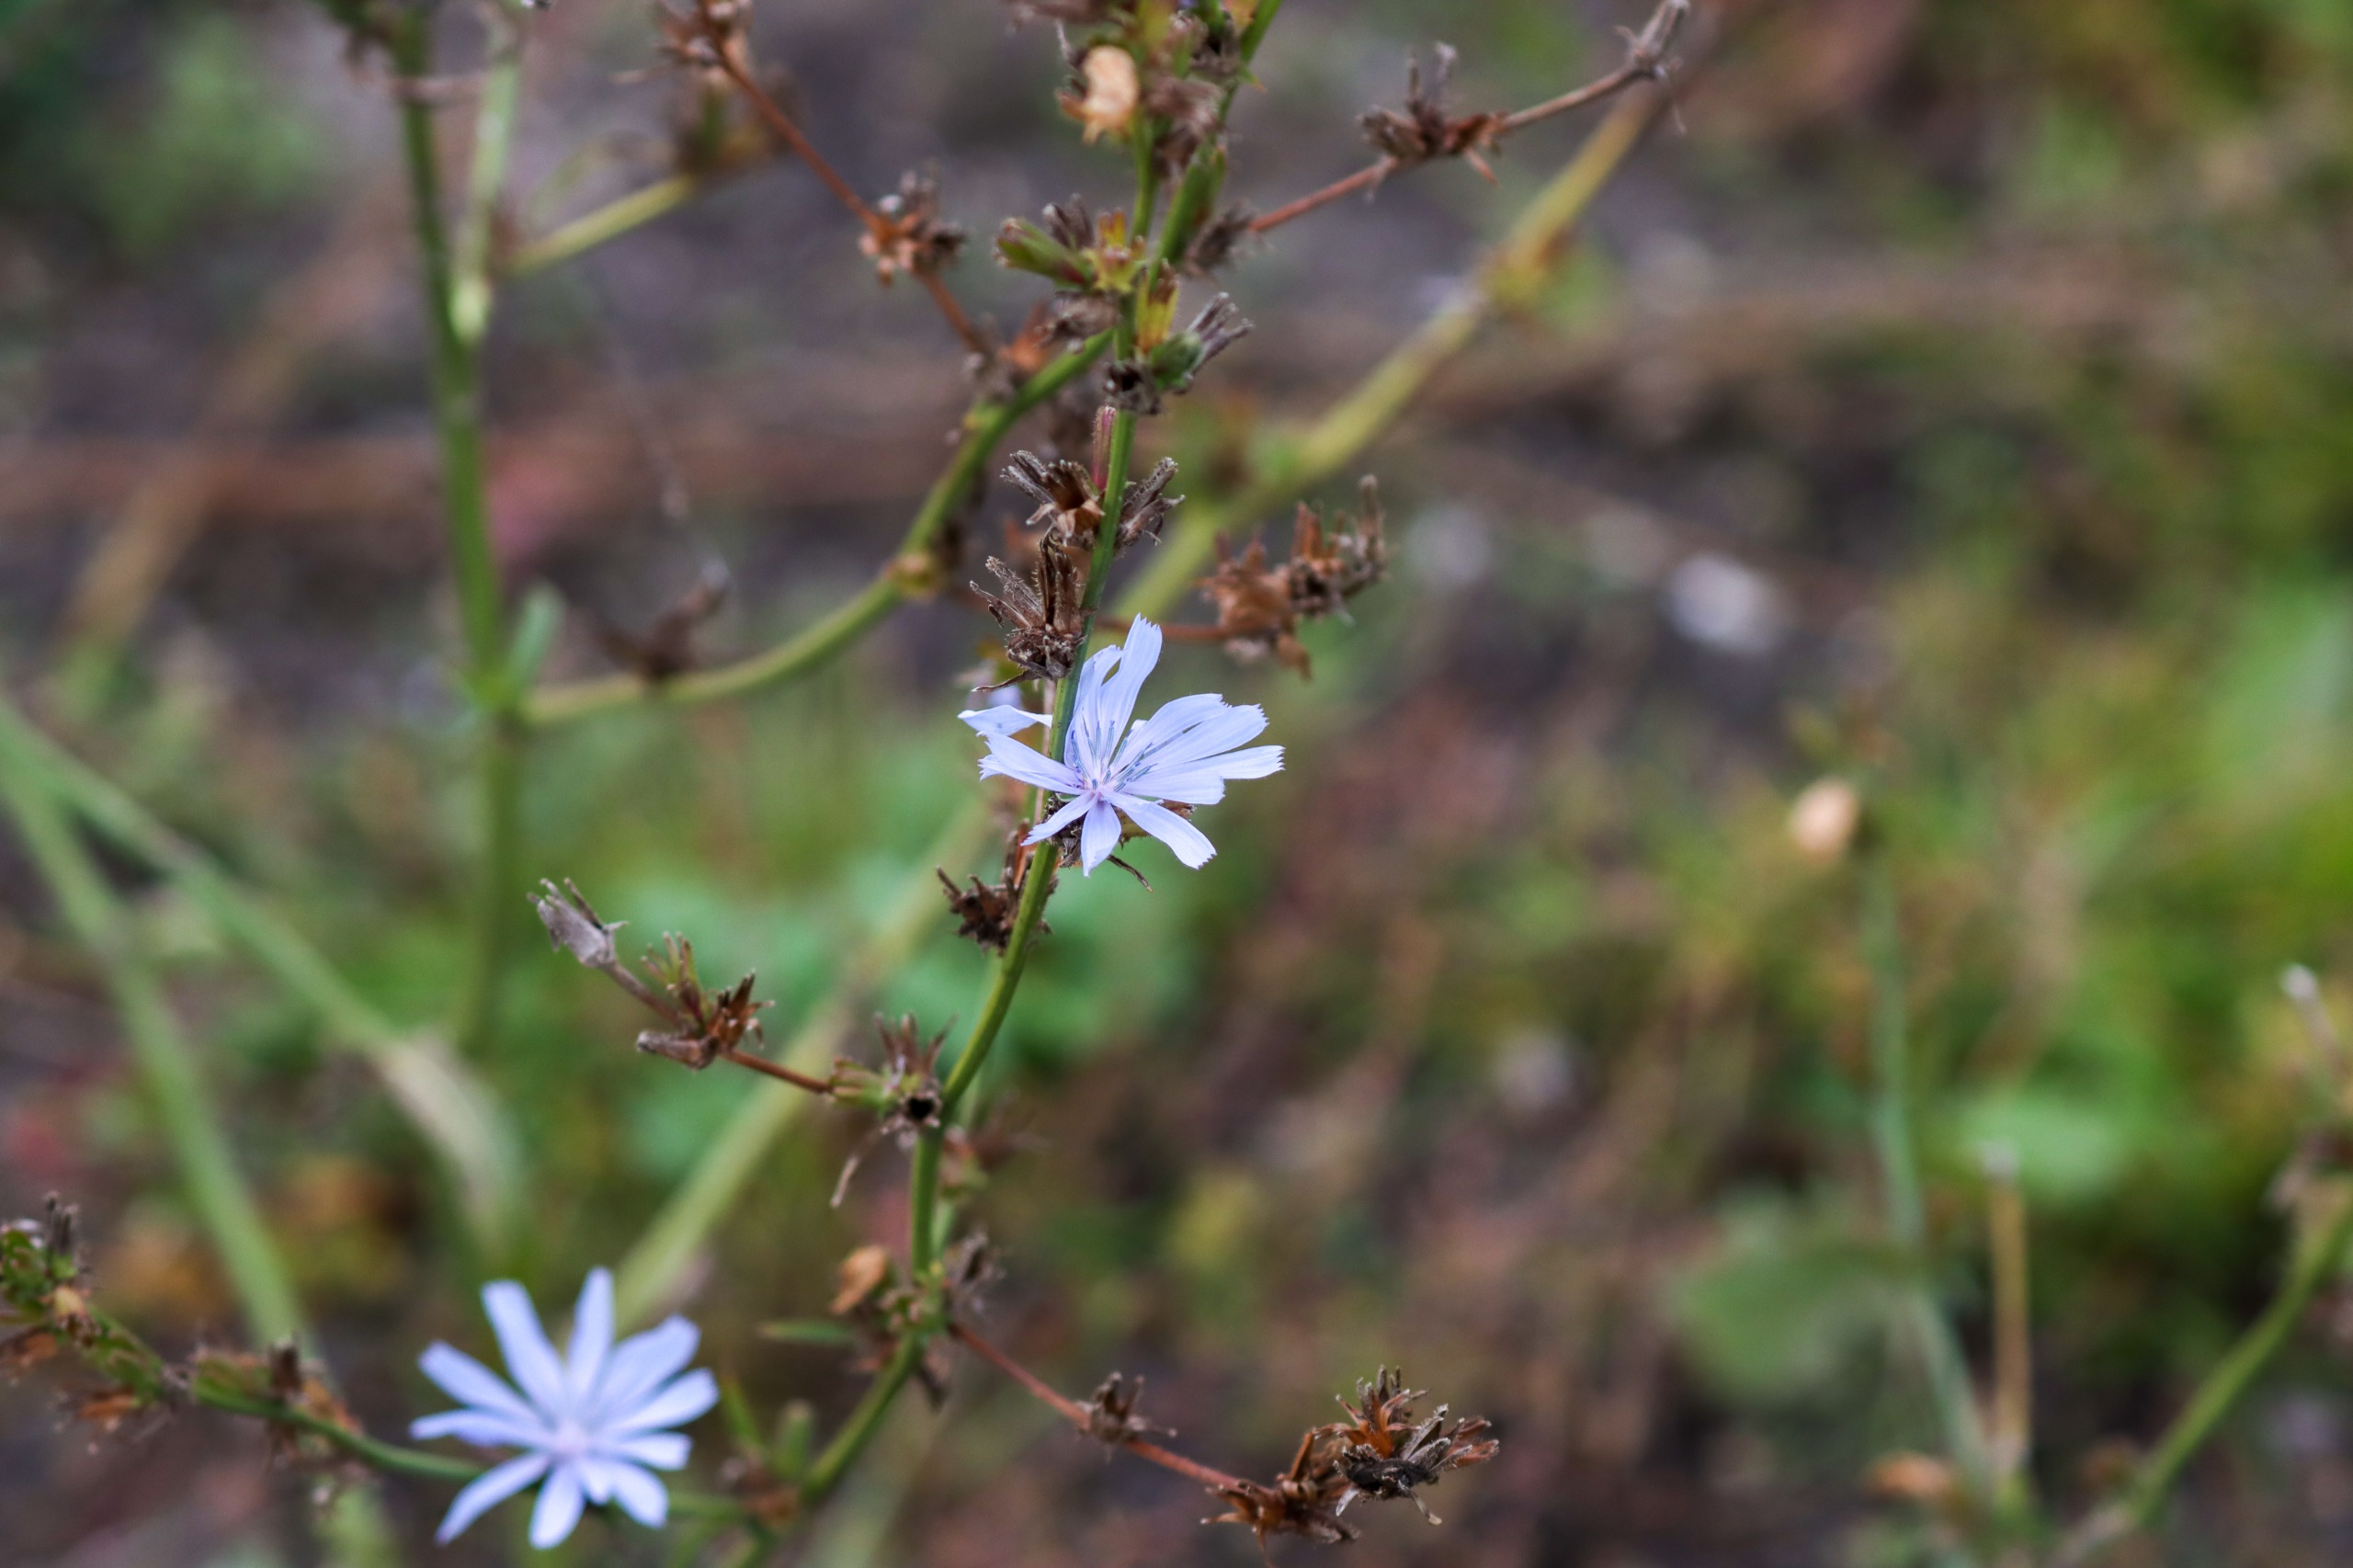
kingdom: Plantae
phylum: Tracheophyta
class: Magnoliopsida
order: Asterales
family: Asteraceae
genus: Cichorium
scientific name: Cichorium intybus
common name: Cikorie
